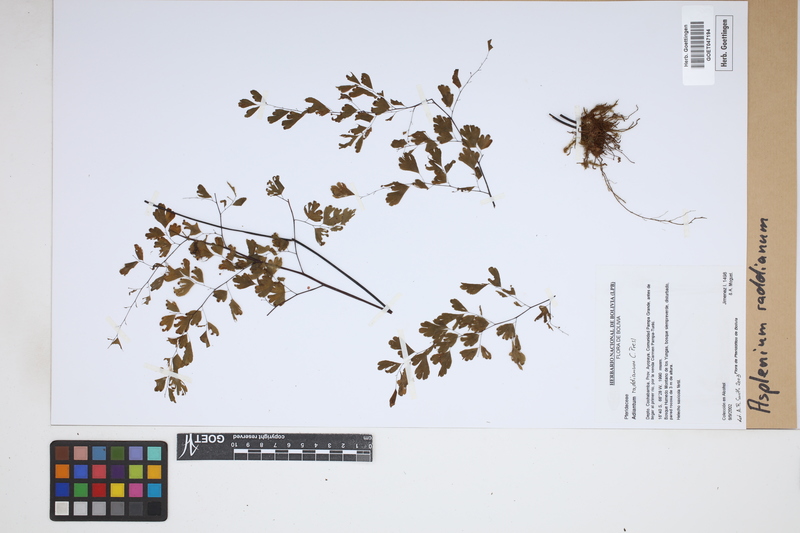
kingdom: Plantae
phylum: Tracheophyta
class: Polypodiopsida
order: Polypodiales
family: Aspleniaceae
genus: Asplenium
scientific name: Asplenium raddianum
